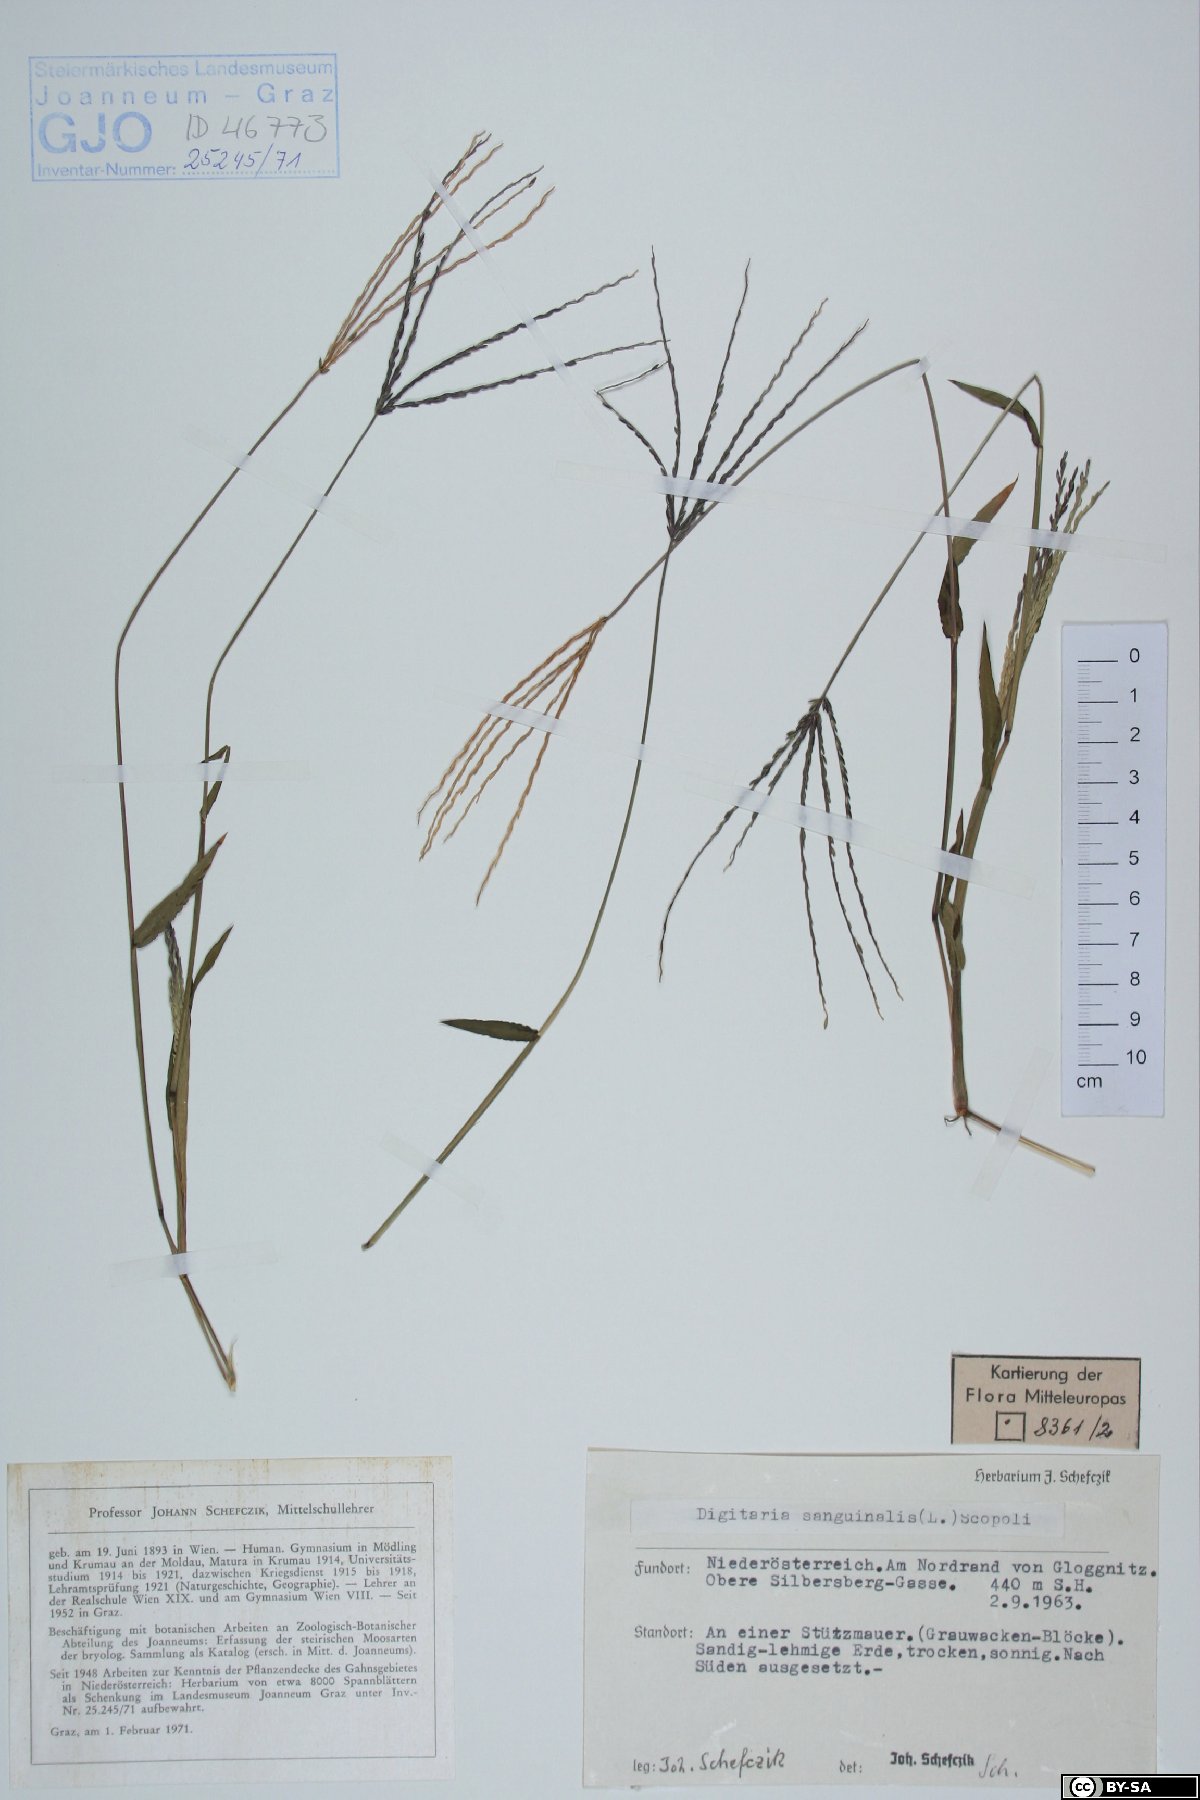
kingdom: Plantae
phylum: Tracheophyta
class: Liliopsida
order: Poales
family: Poaceae
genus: Digitaria
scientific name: Digitaria sanguinalis
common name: Hairy crabgrass
